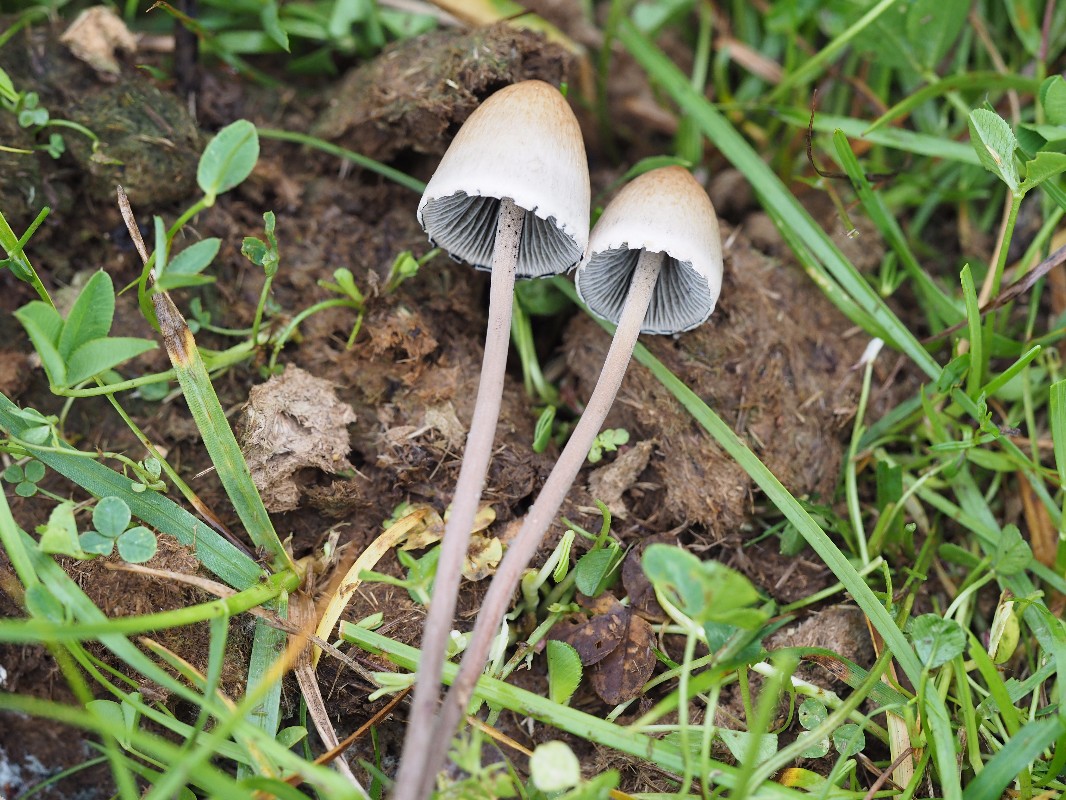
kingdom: Fungi
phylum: Basidiomycota
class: Agaricomycetes
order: Agaricales
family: Bolbitiaceae
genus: Panaeolus
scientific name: Panaeolus papilionaceus
